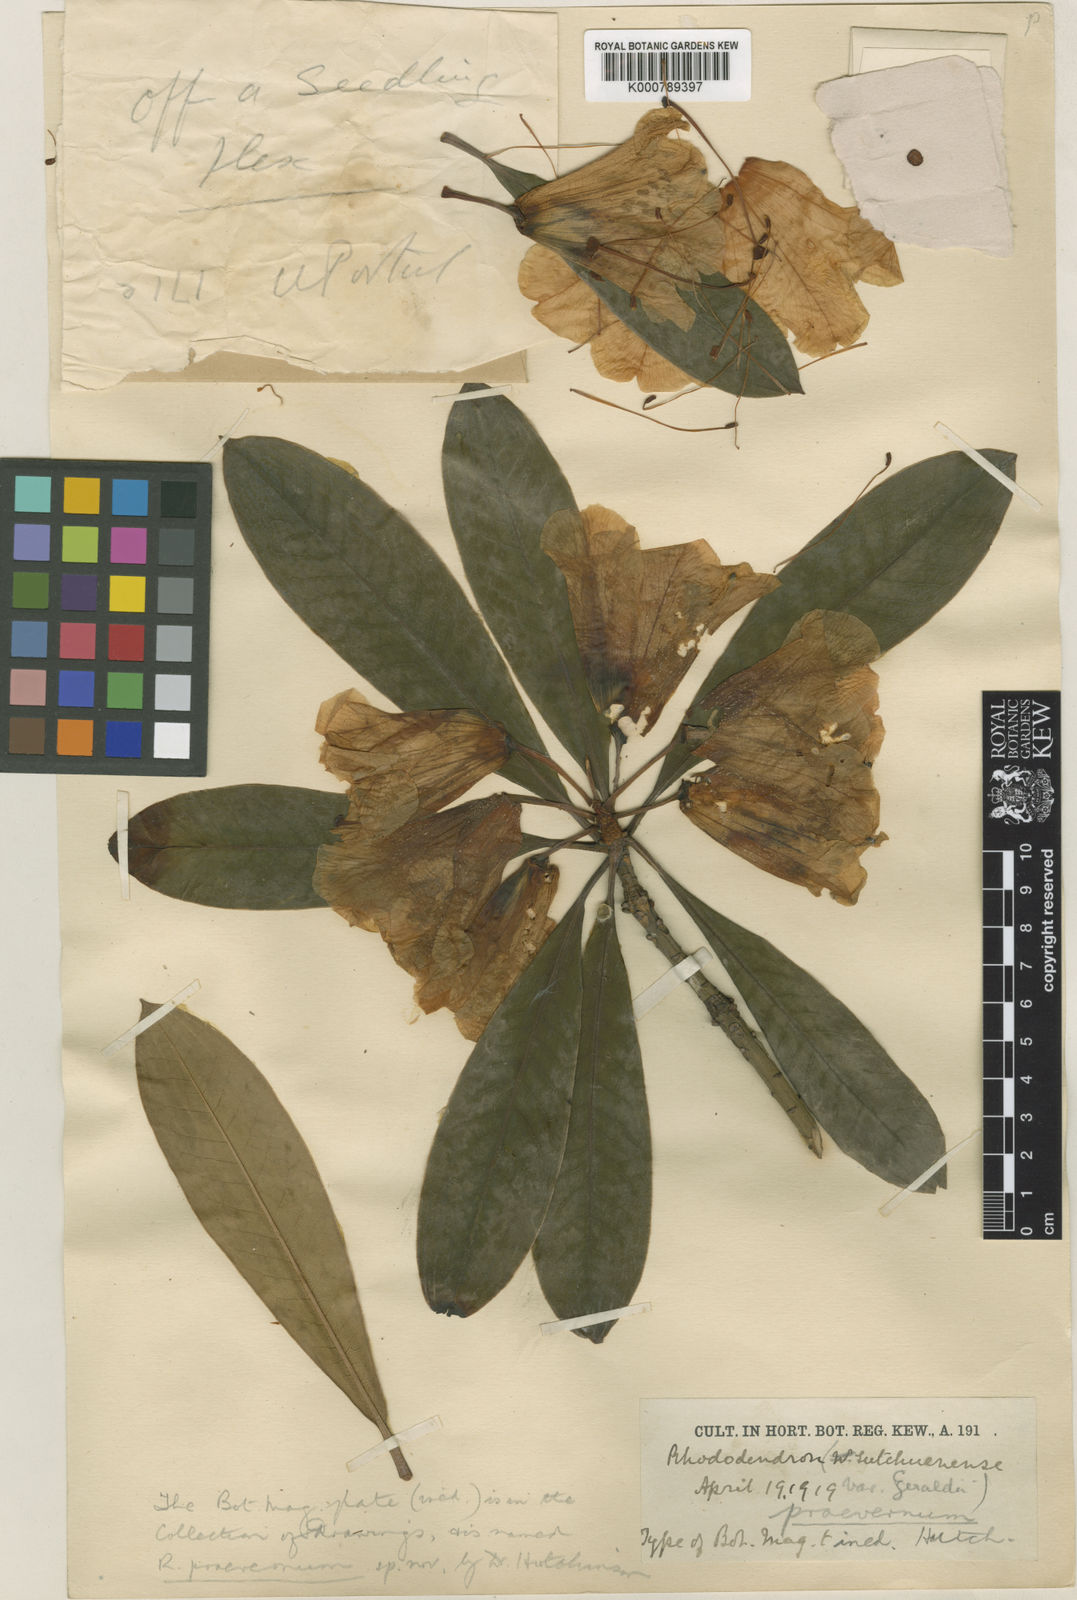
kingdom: Plantae
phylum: Tracheophyta
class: Magnoliopsida
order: Ericales
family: Ericaceae
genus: Rhododendron
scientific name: Rhododendron praevernum
